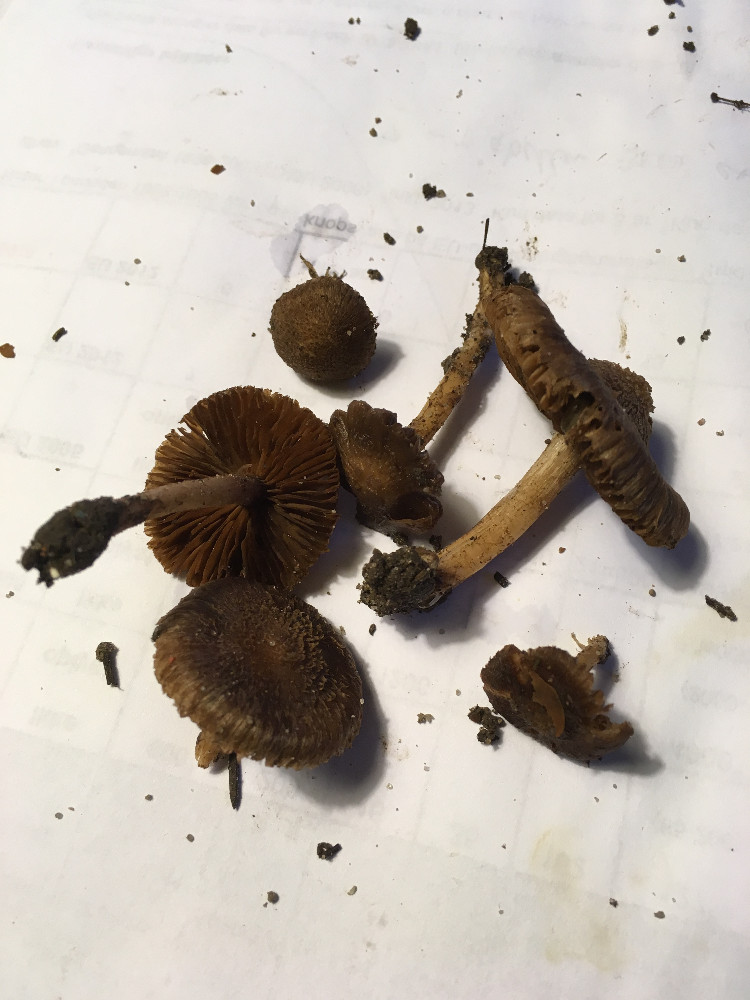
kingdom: Fungi
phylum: Basidiomycota
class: Agaricomycetes
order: Agaricales
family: Inocybaceae
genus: Inocybe
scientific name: Inocybe
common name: trævlhat
